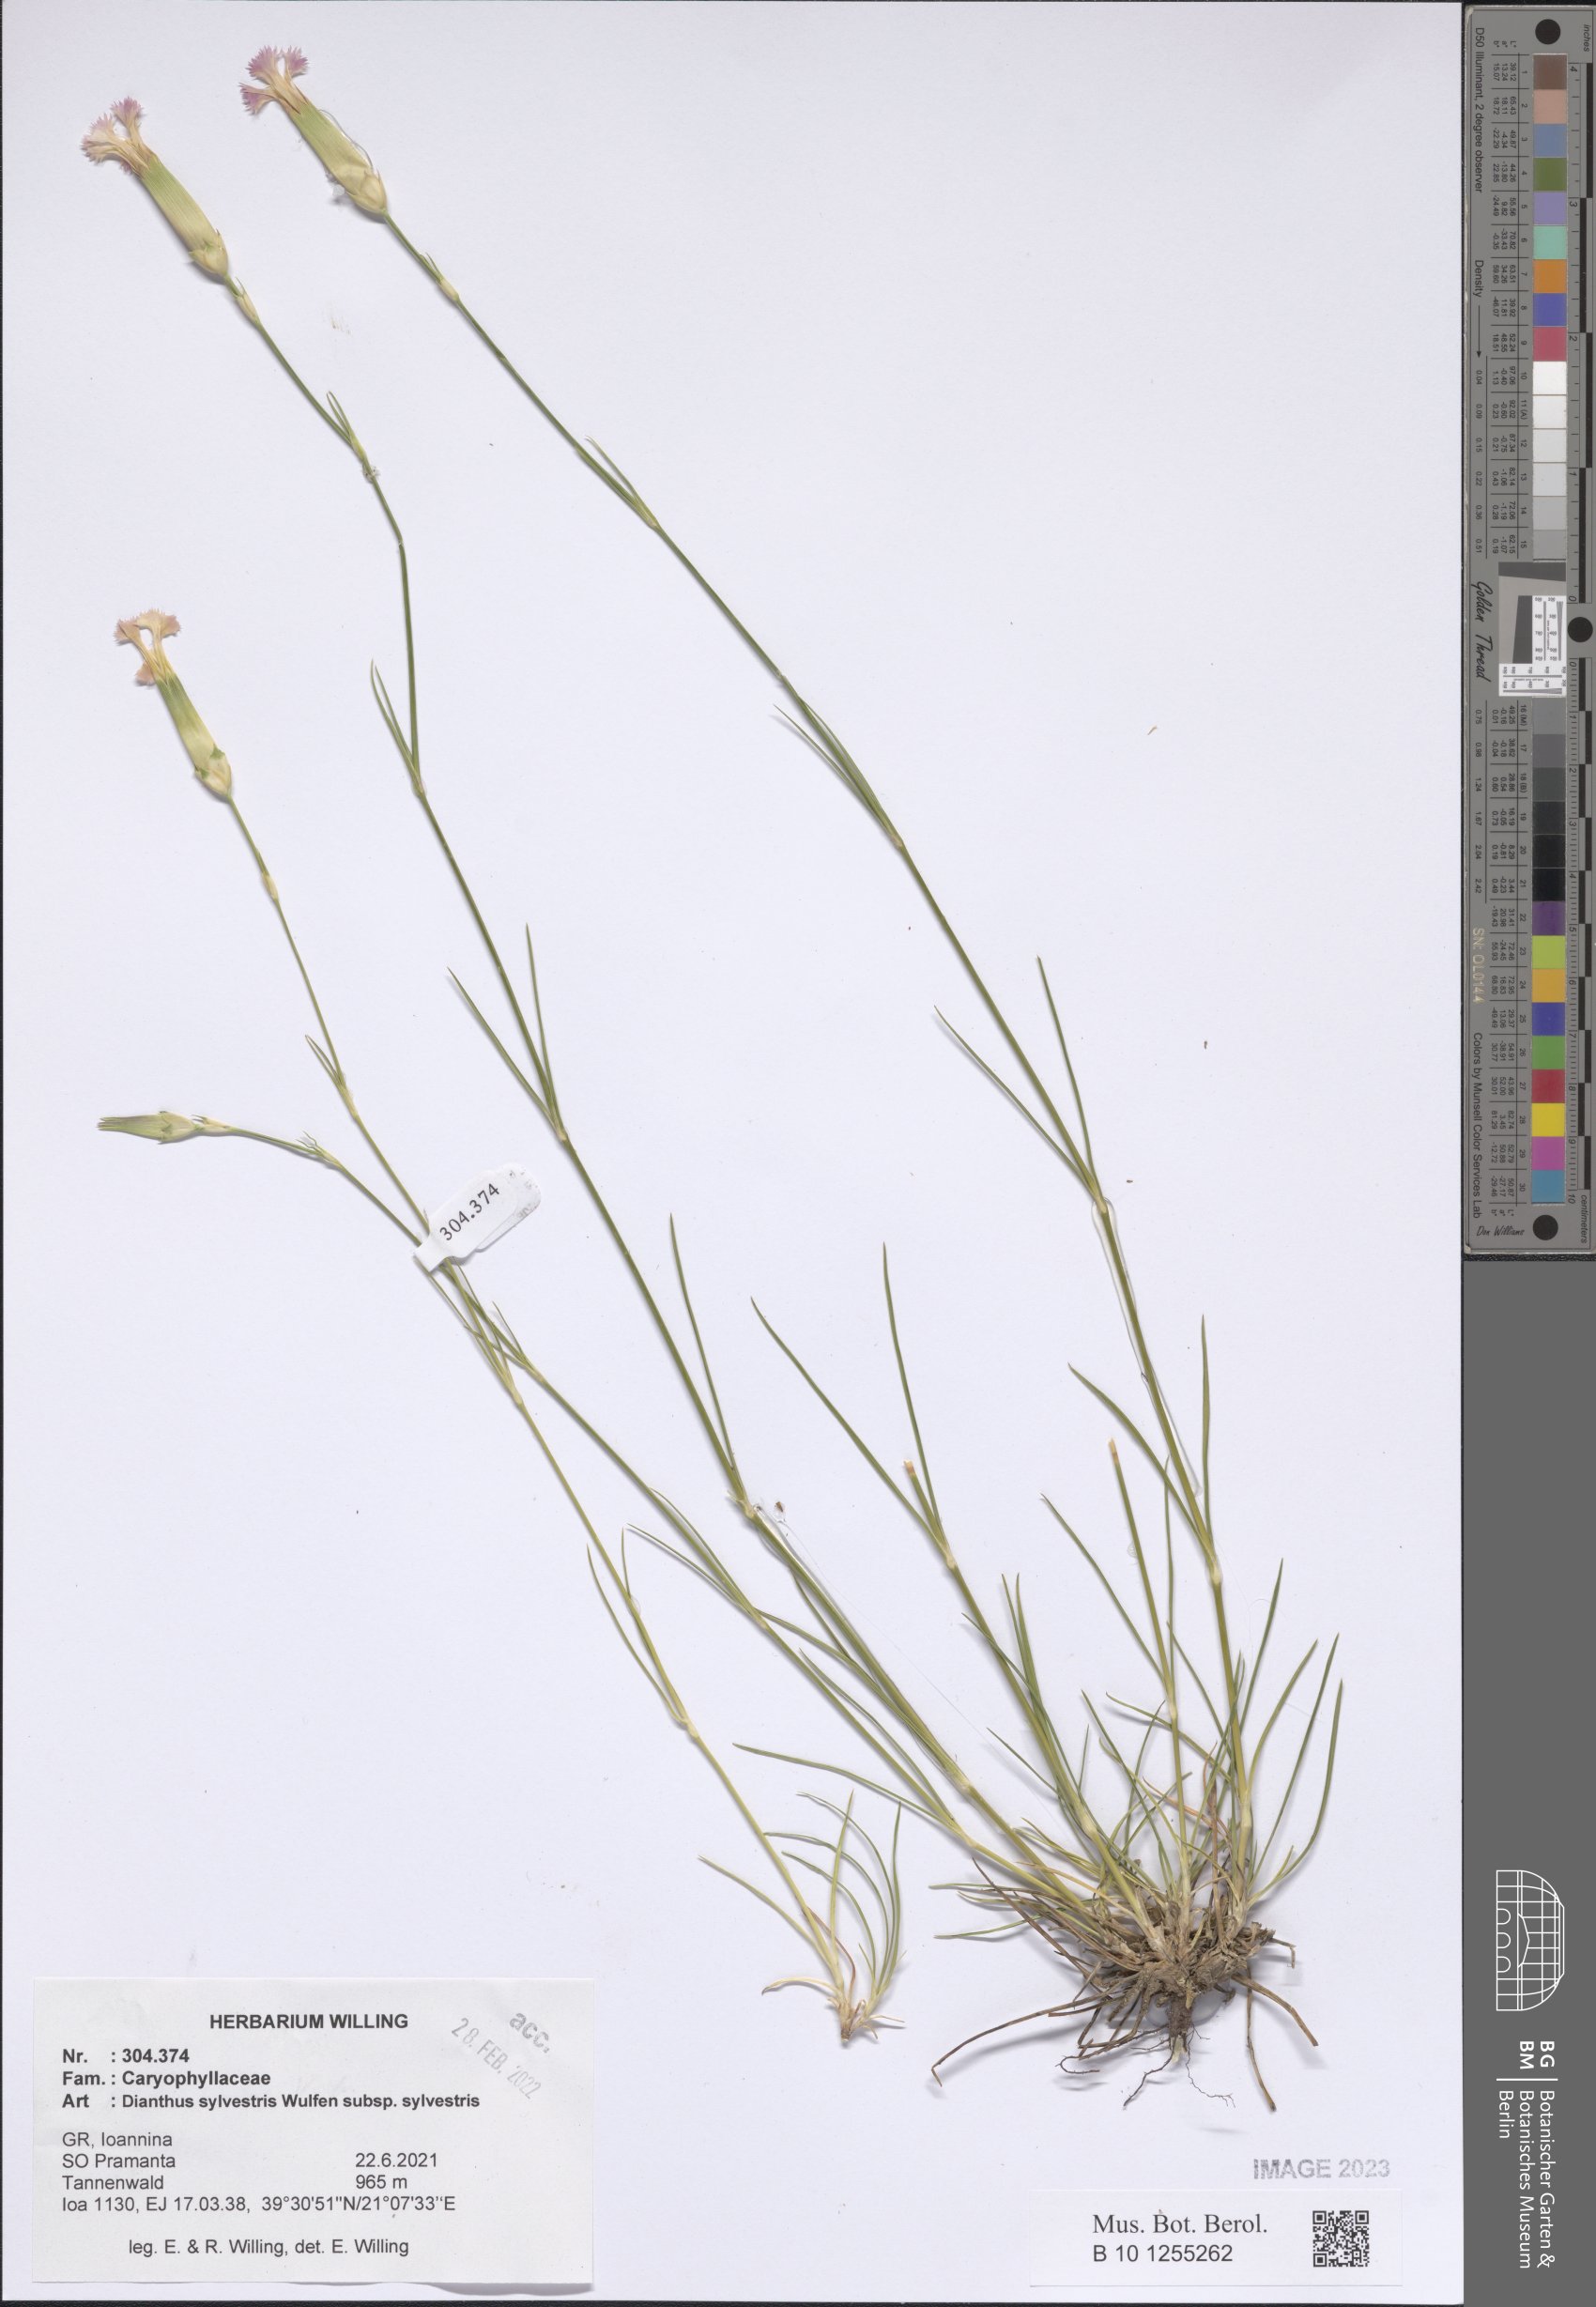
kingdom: Plantae
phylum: Tracheophyta
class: Magnoliopsida
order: Caryophyllales
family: Caryophyllaceae
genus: Dianthus
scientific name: Dianthus sylvestris
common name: Wood pink
